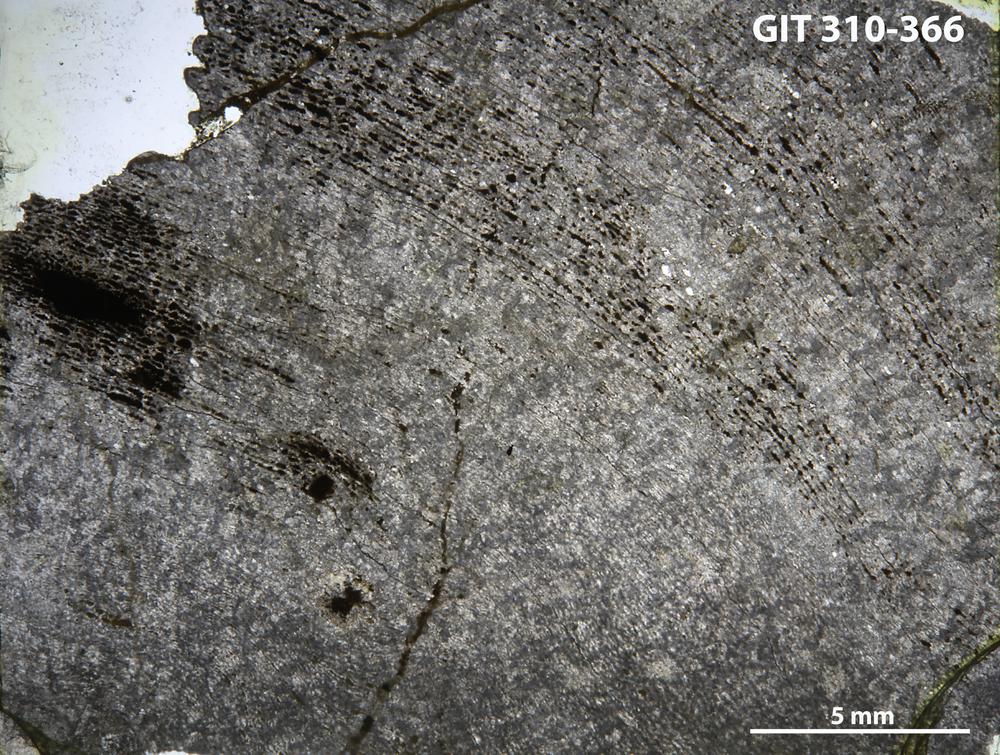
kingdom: Animalia
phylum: Porifera
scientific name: Porifera
